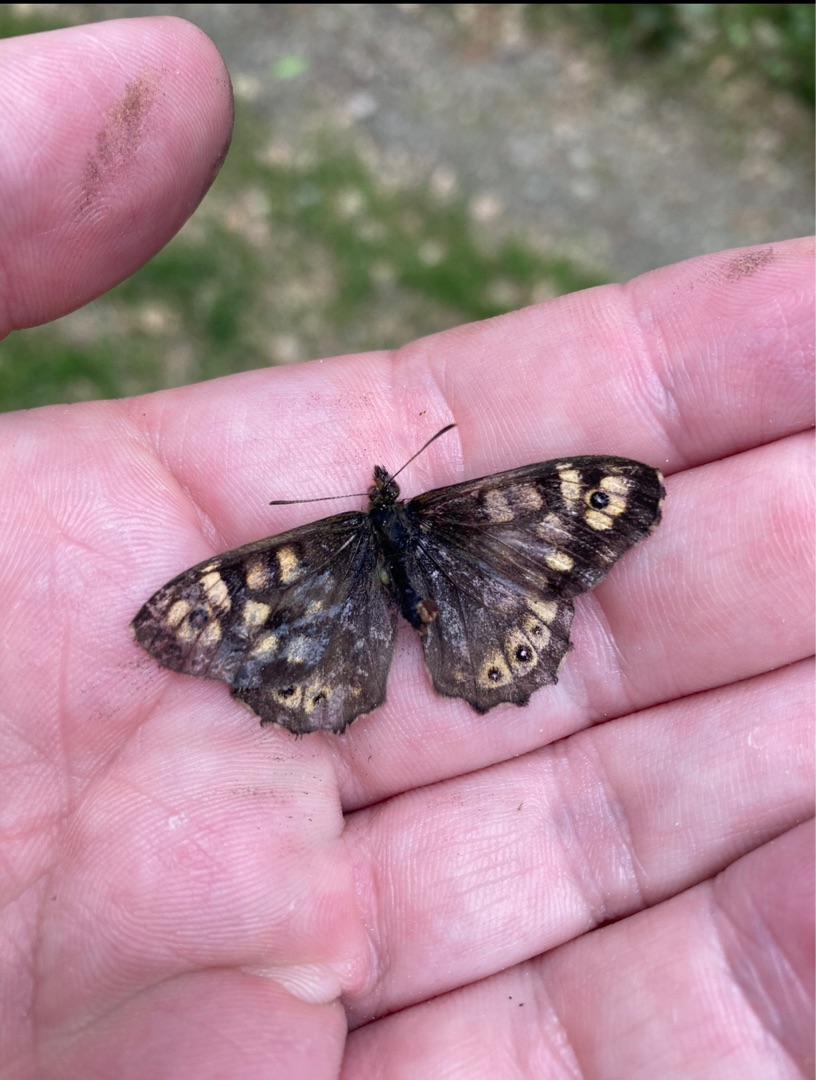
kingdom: Animalia
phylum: Arthropoda
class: Insecta
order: Lepidoptera
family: Nymphalidae
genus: Pararge
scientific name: Pararge aegeria
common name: Skovrandøje
